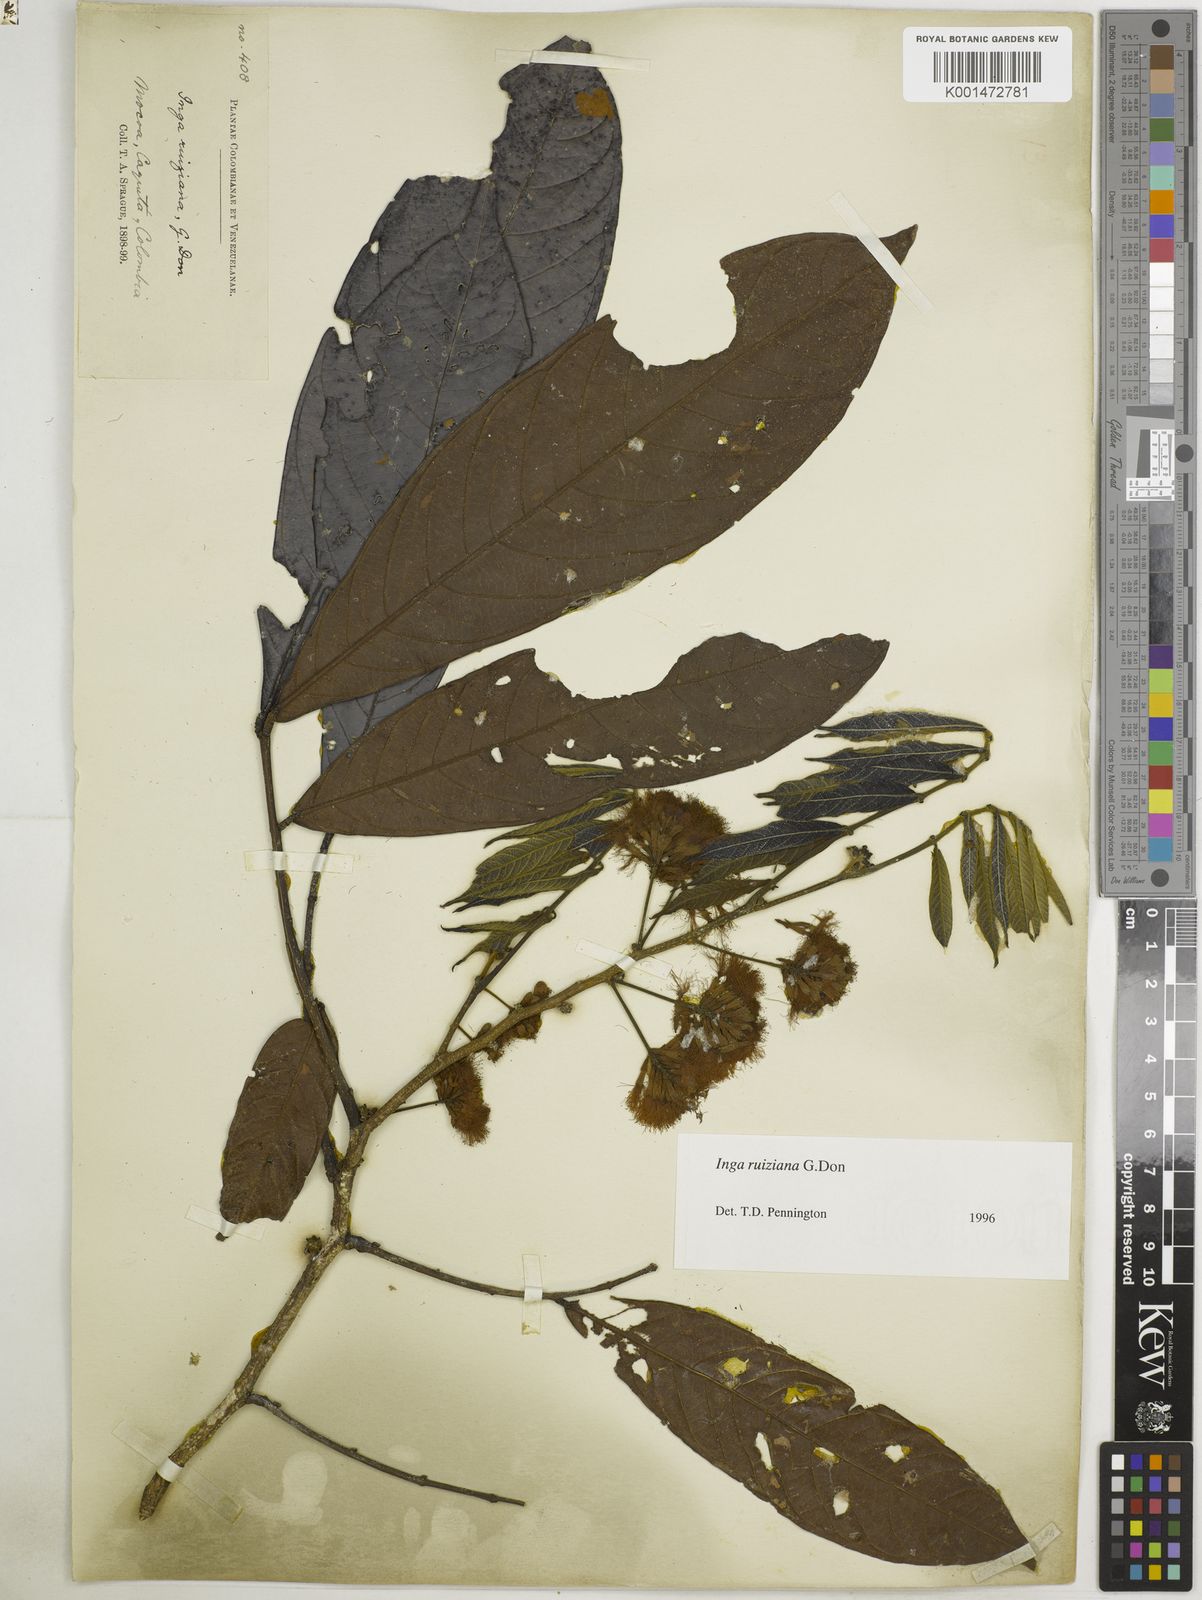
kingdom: Plantae
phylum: Tracheophyta
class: Magnoliopsida
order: Fabales
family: Fabaceae
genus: Inga
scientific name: Inga ruiziana
